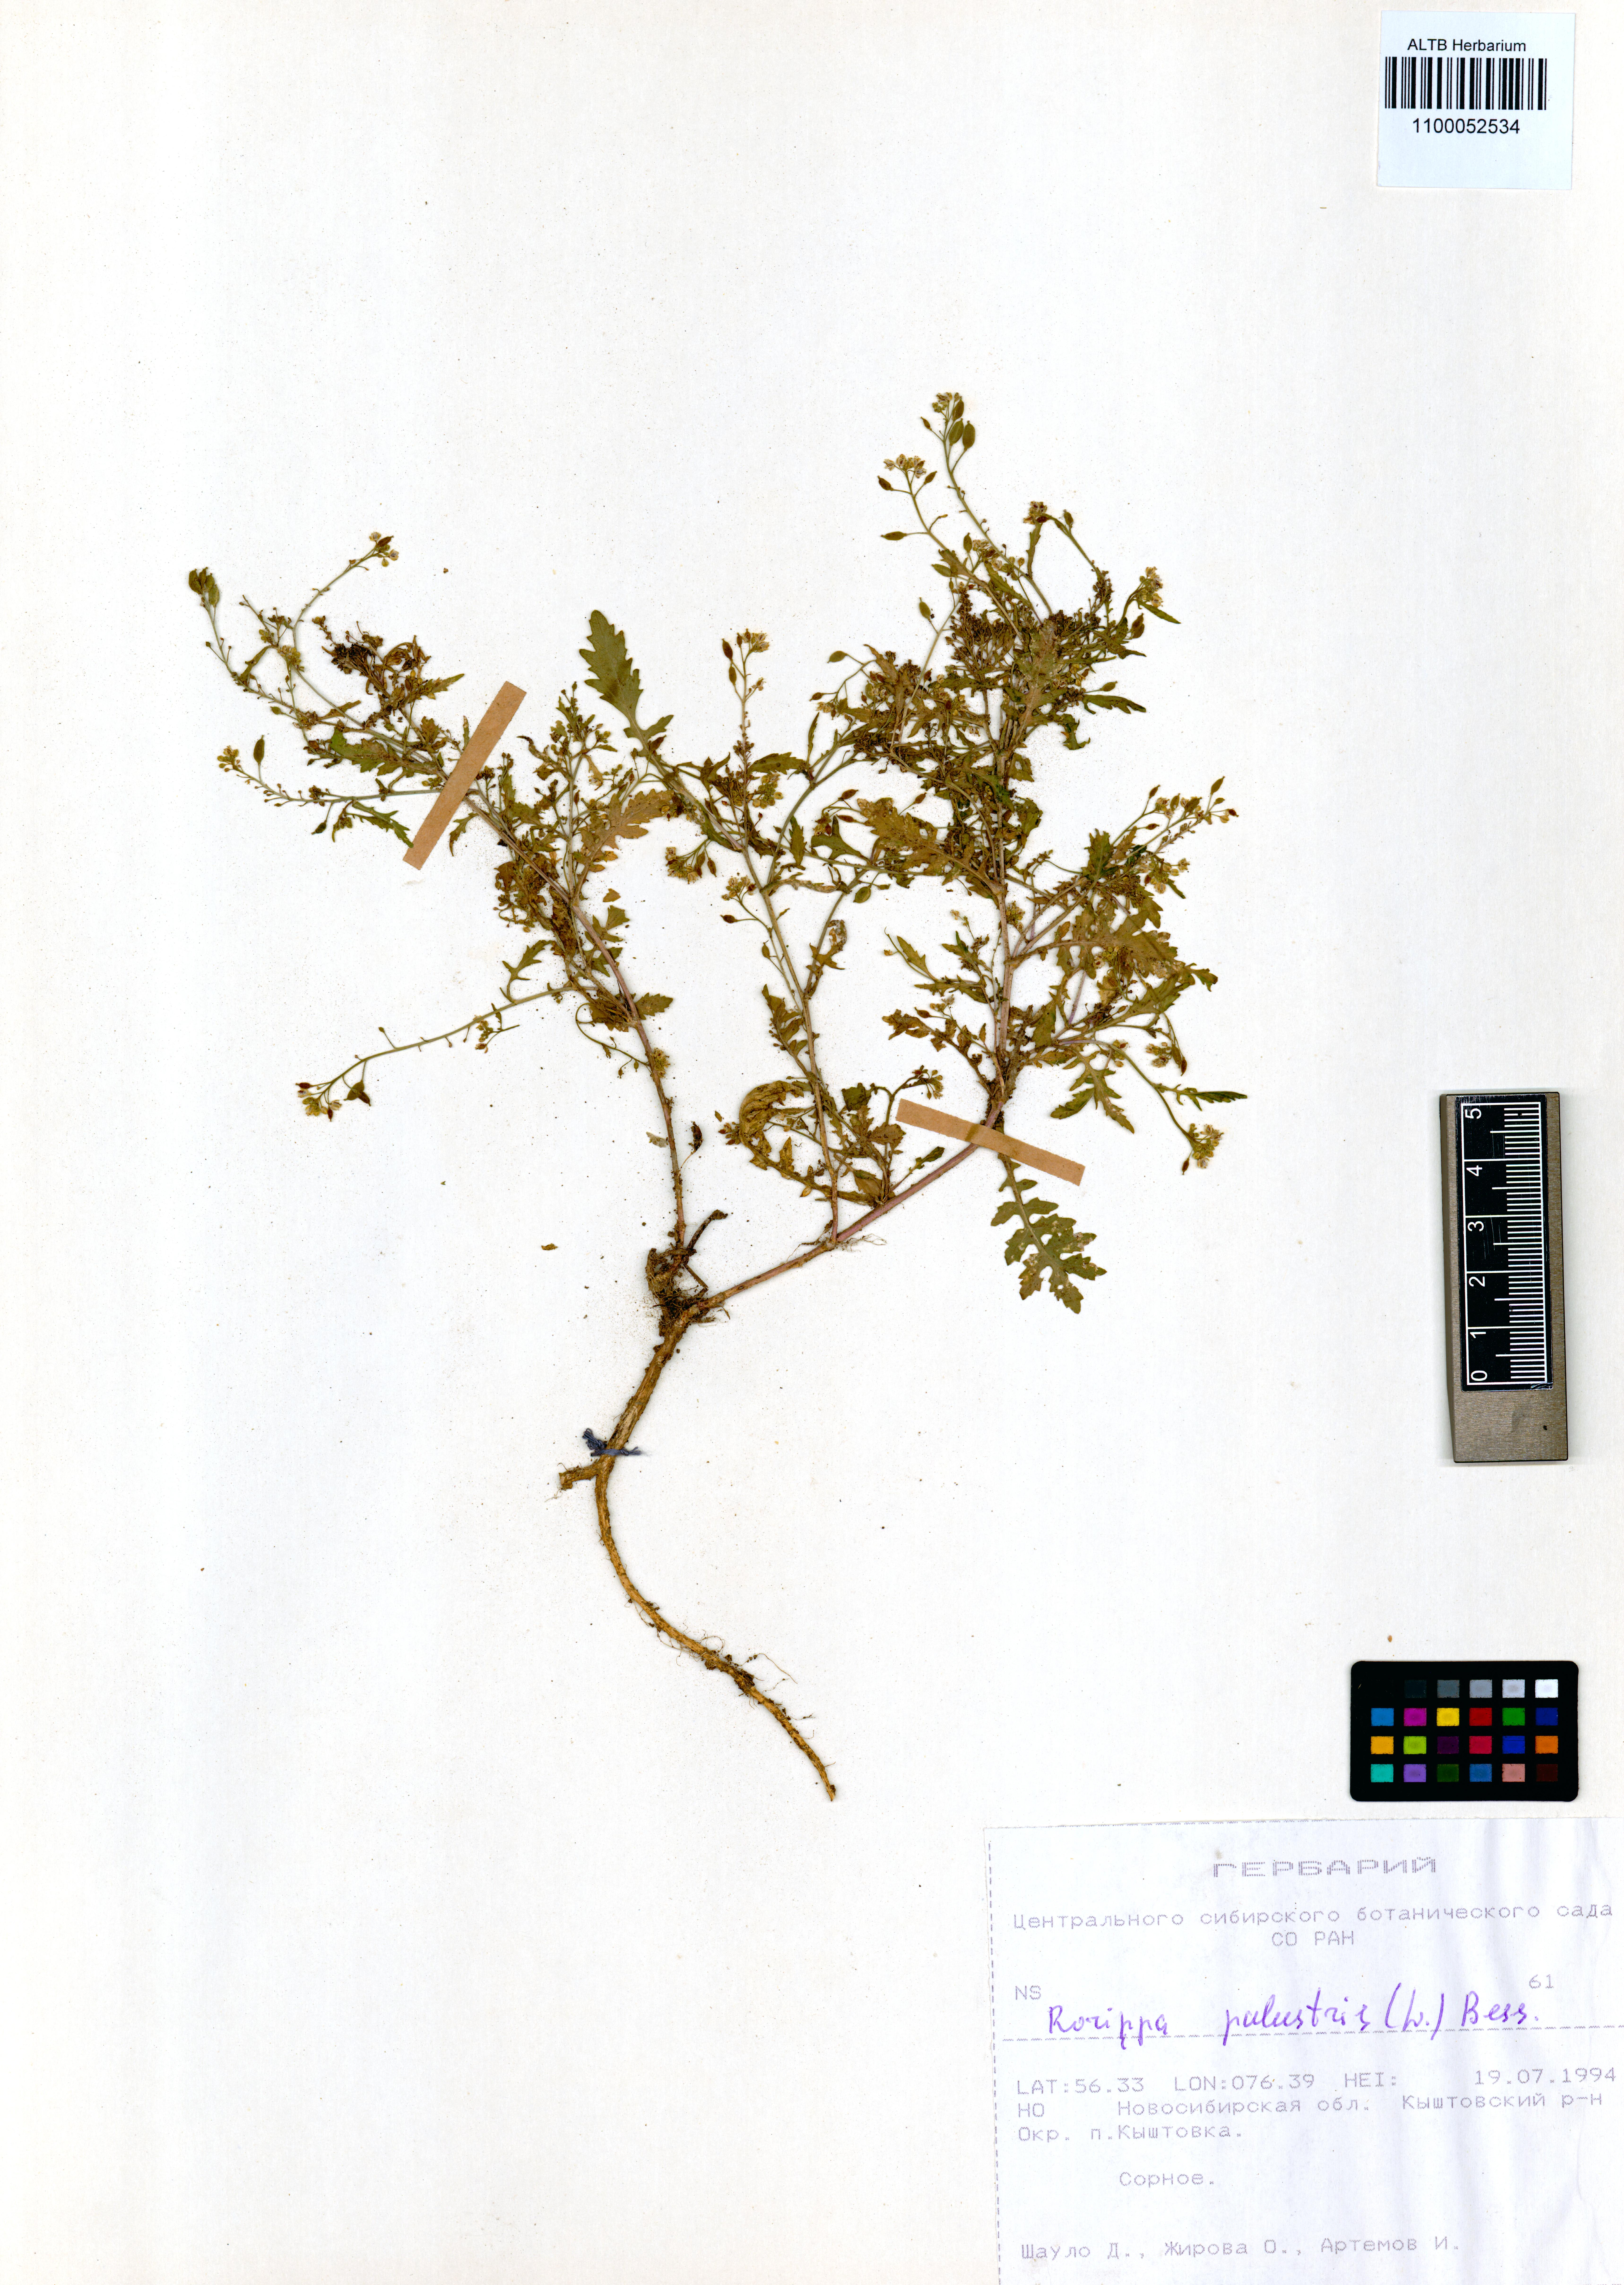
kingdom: Plantae
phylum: Tracheophyta
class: Magnoliopsida
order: Brassicales
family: Brassicaceae
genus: Rorippa
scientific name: Rorippa palustris
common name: Marsh yellow-cress
